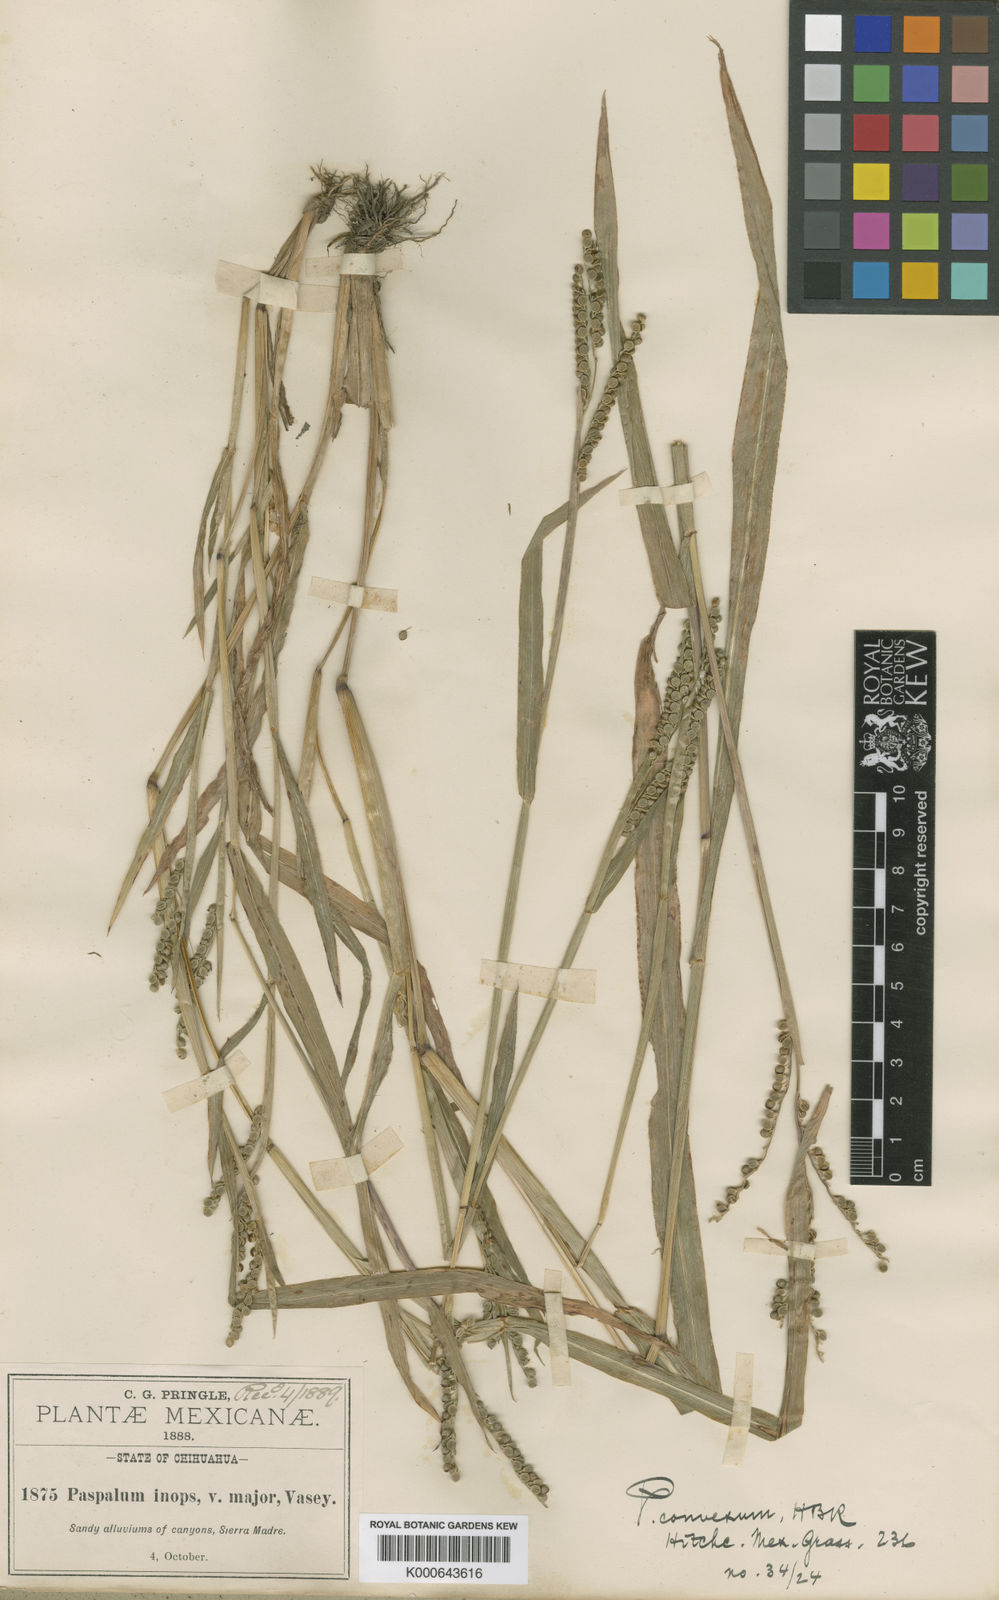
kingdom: Plantae
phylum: Tracheophyta
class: Liliopsida
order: Poales
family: Poaceae
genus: Paspalum
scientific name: Paspalum
